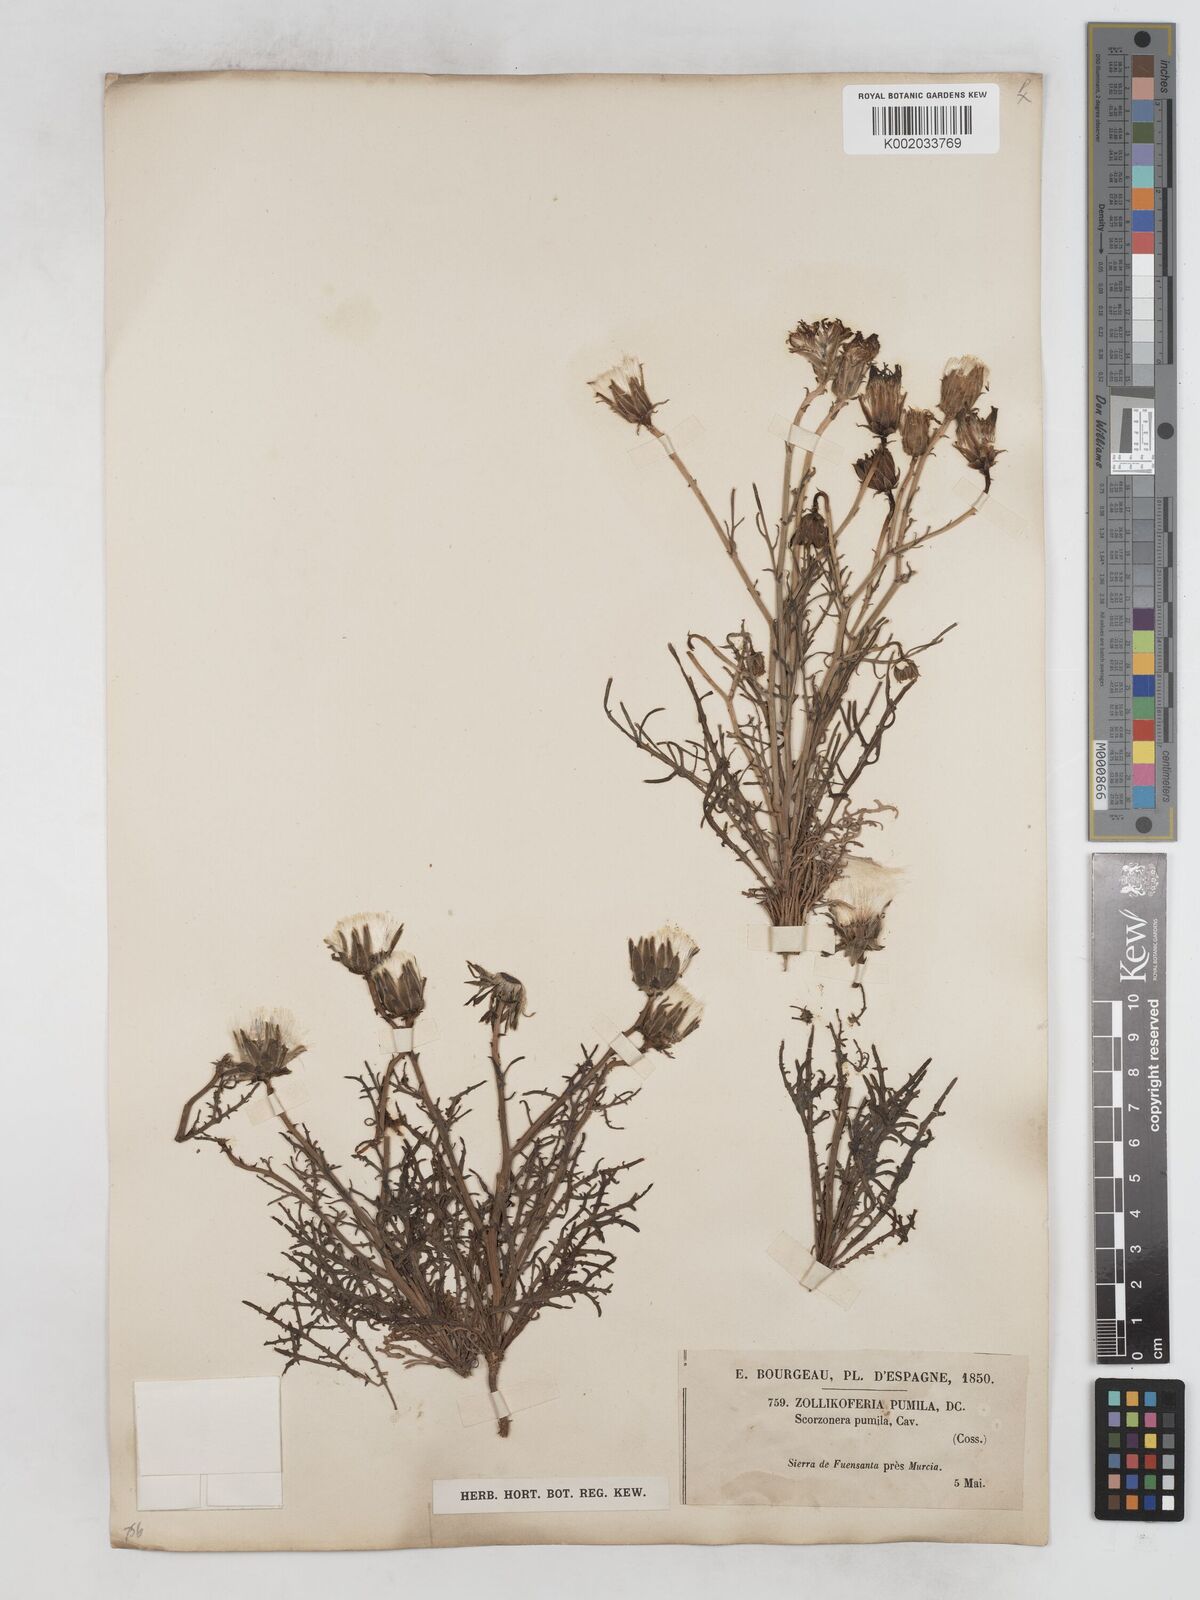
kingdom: Plantae
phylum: Tracheophyta
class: Magnoliopsida
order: Asterales
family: Asteraceae
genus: Launaea
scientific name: Launaea pumila
